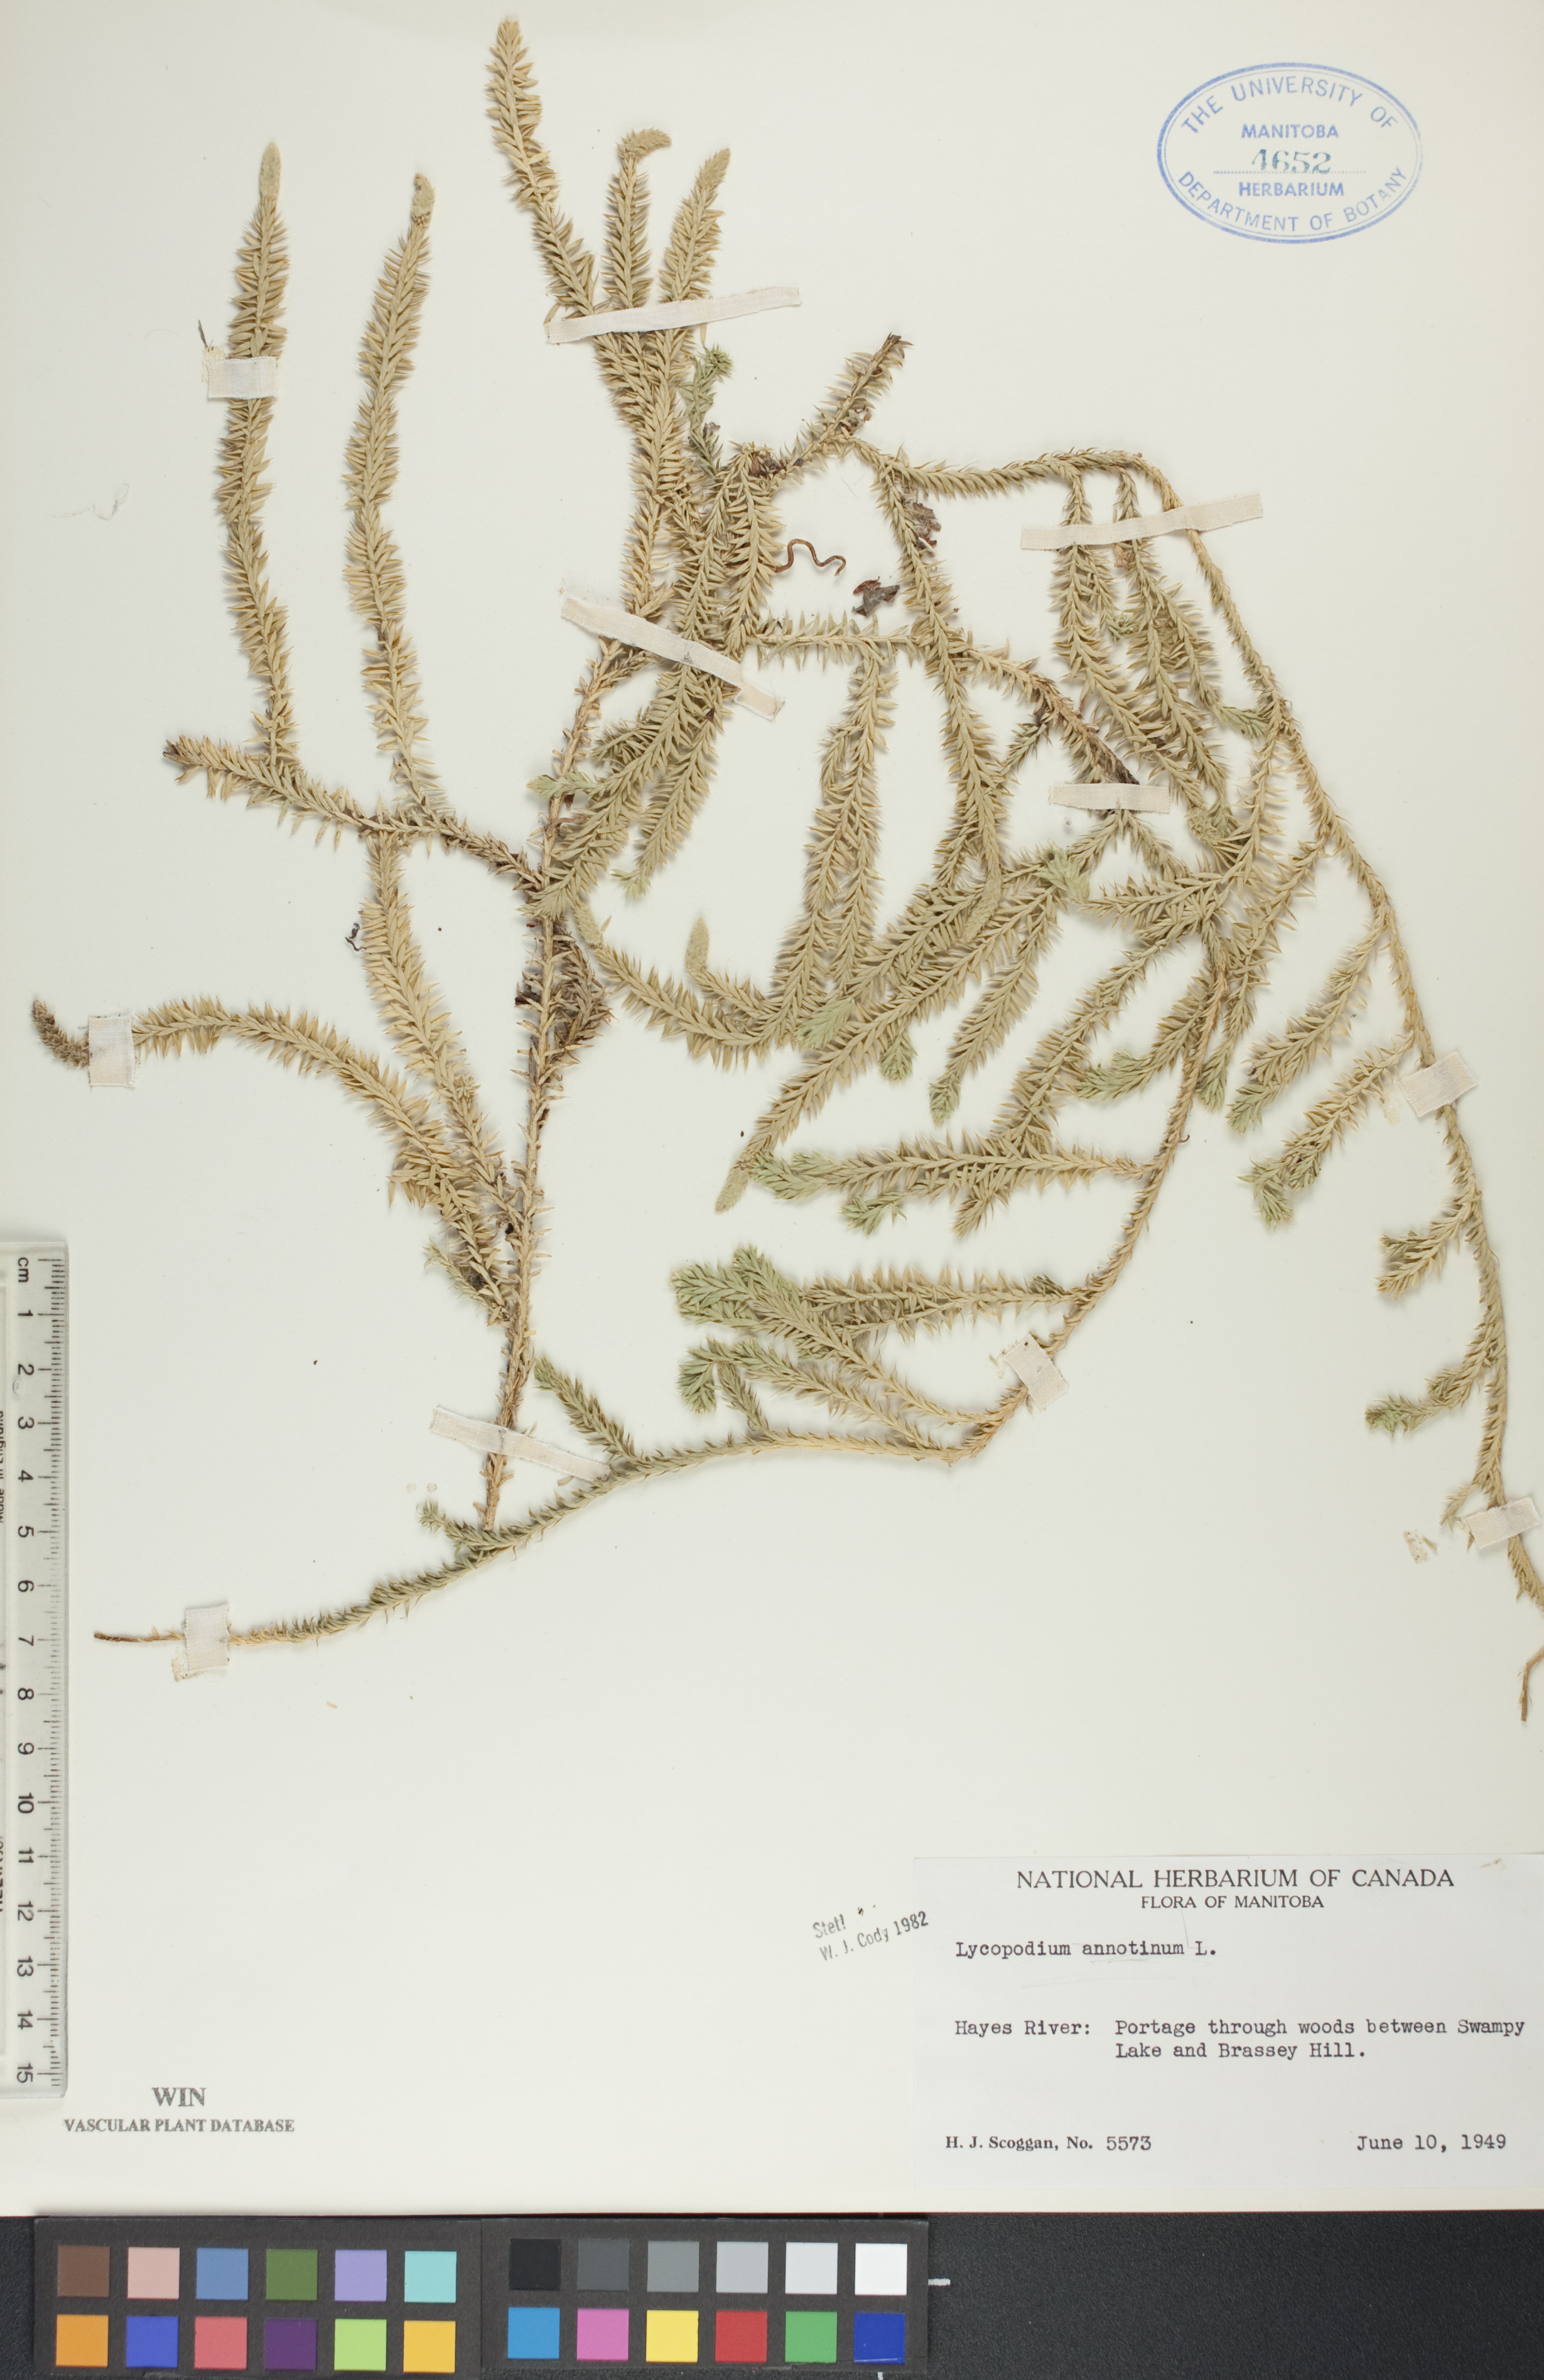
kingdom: Plantae
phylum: Tracheophyta
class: Lycopodiopsida
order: Lycopodiales
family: Lycopodiaceae
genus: Spinulum
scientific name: Spinulum annotinum
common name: Interrupted club-moss
